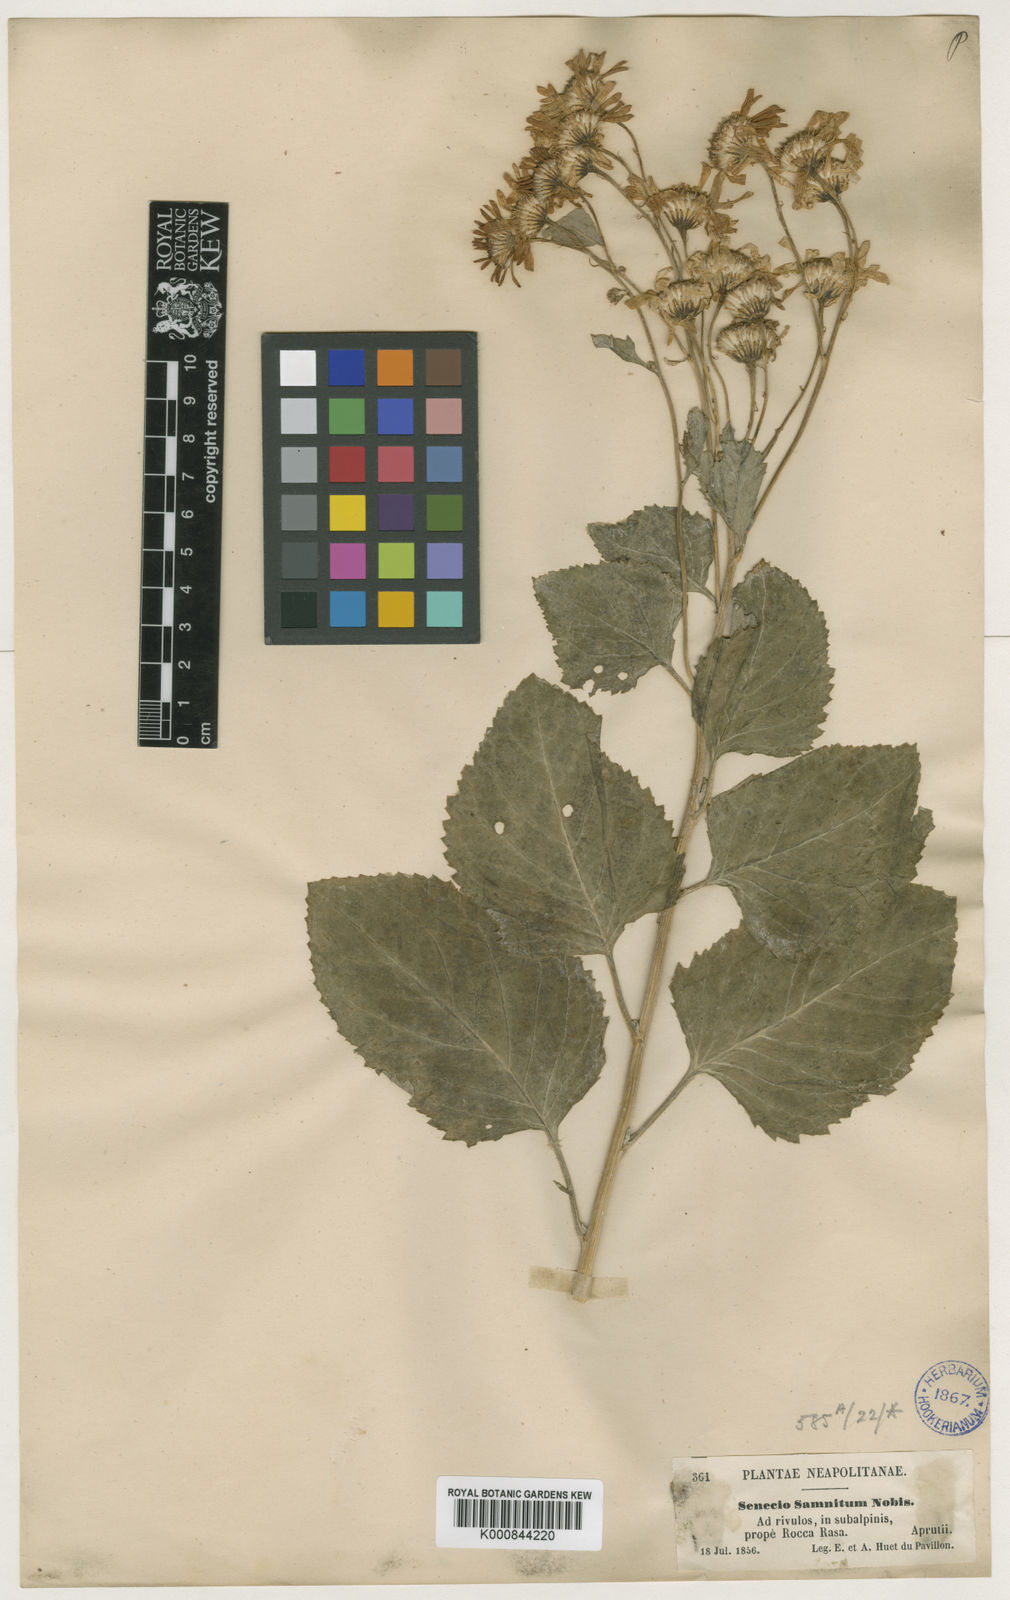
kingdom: Plantae
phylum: Tracheophyta
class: Magnoliopsida
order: Asterales
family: Asteraceae
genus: Jacobaea
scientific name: Jacobaea alpina
